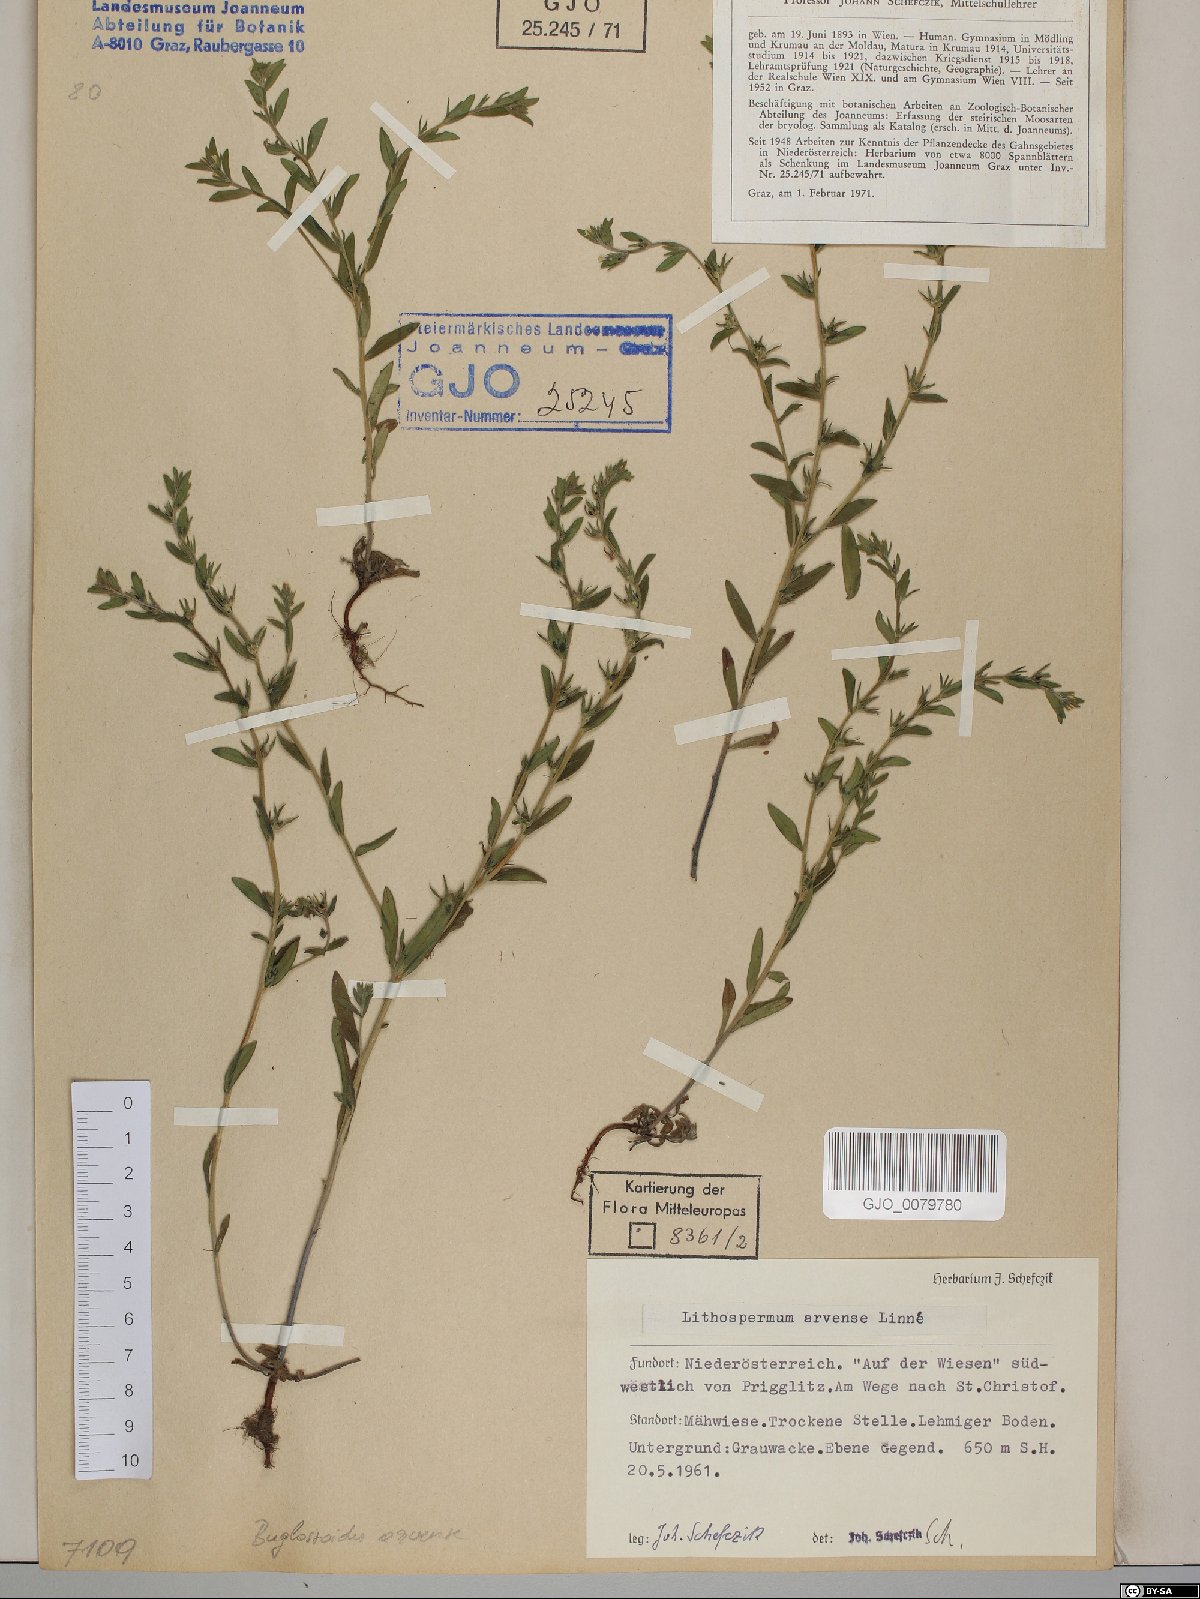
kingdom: Plantae
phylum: Tracheophyta
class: Magnoliopsida
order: Boraginales
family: Boraginaceae
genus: Buglossoides
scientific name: Buglossoides arvensis
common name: Corn gromwell
